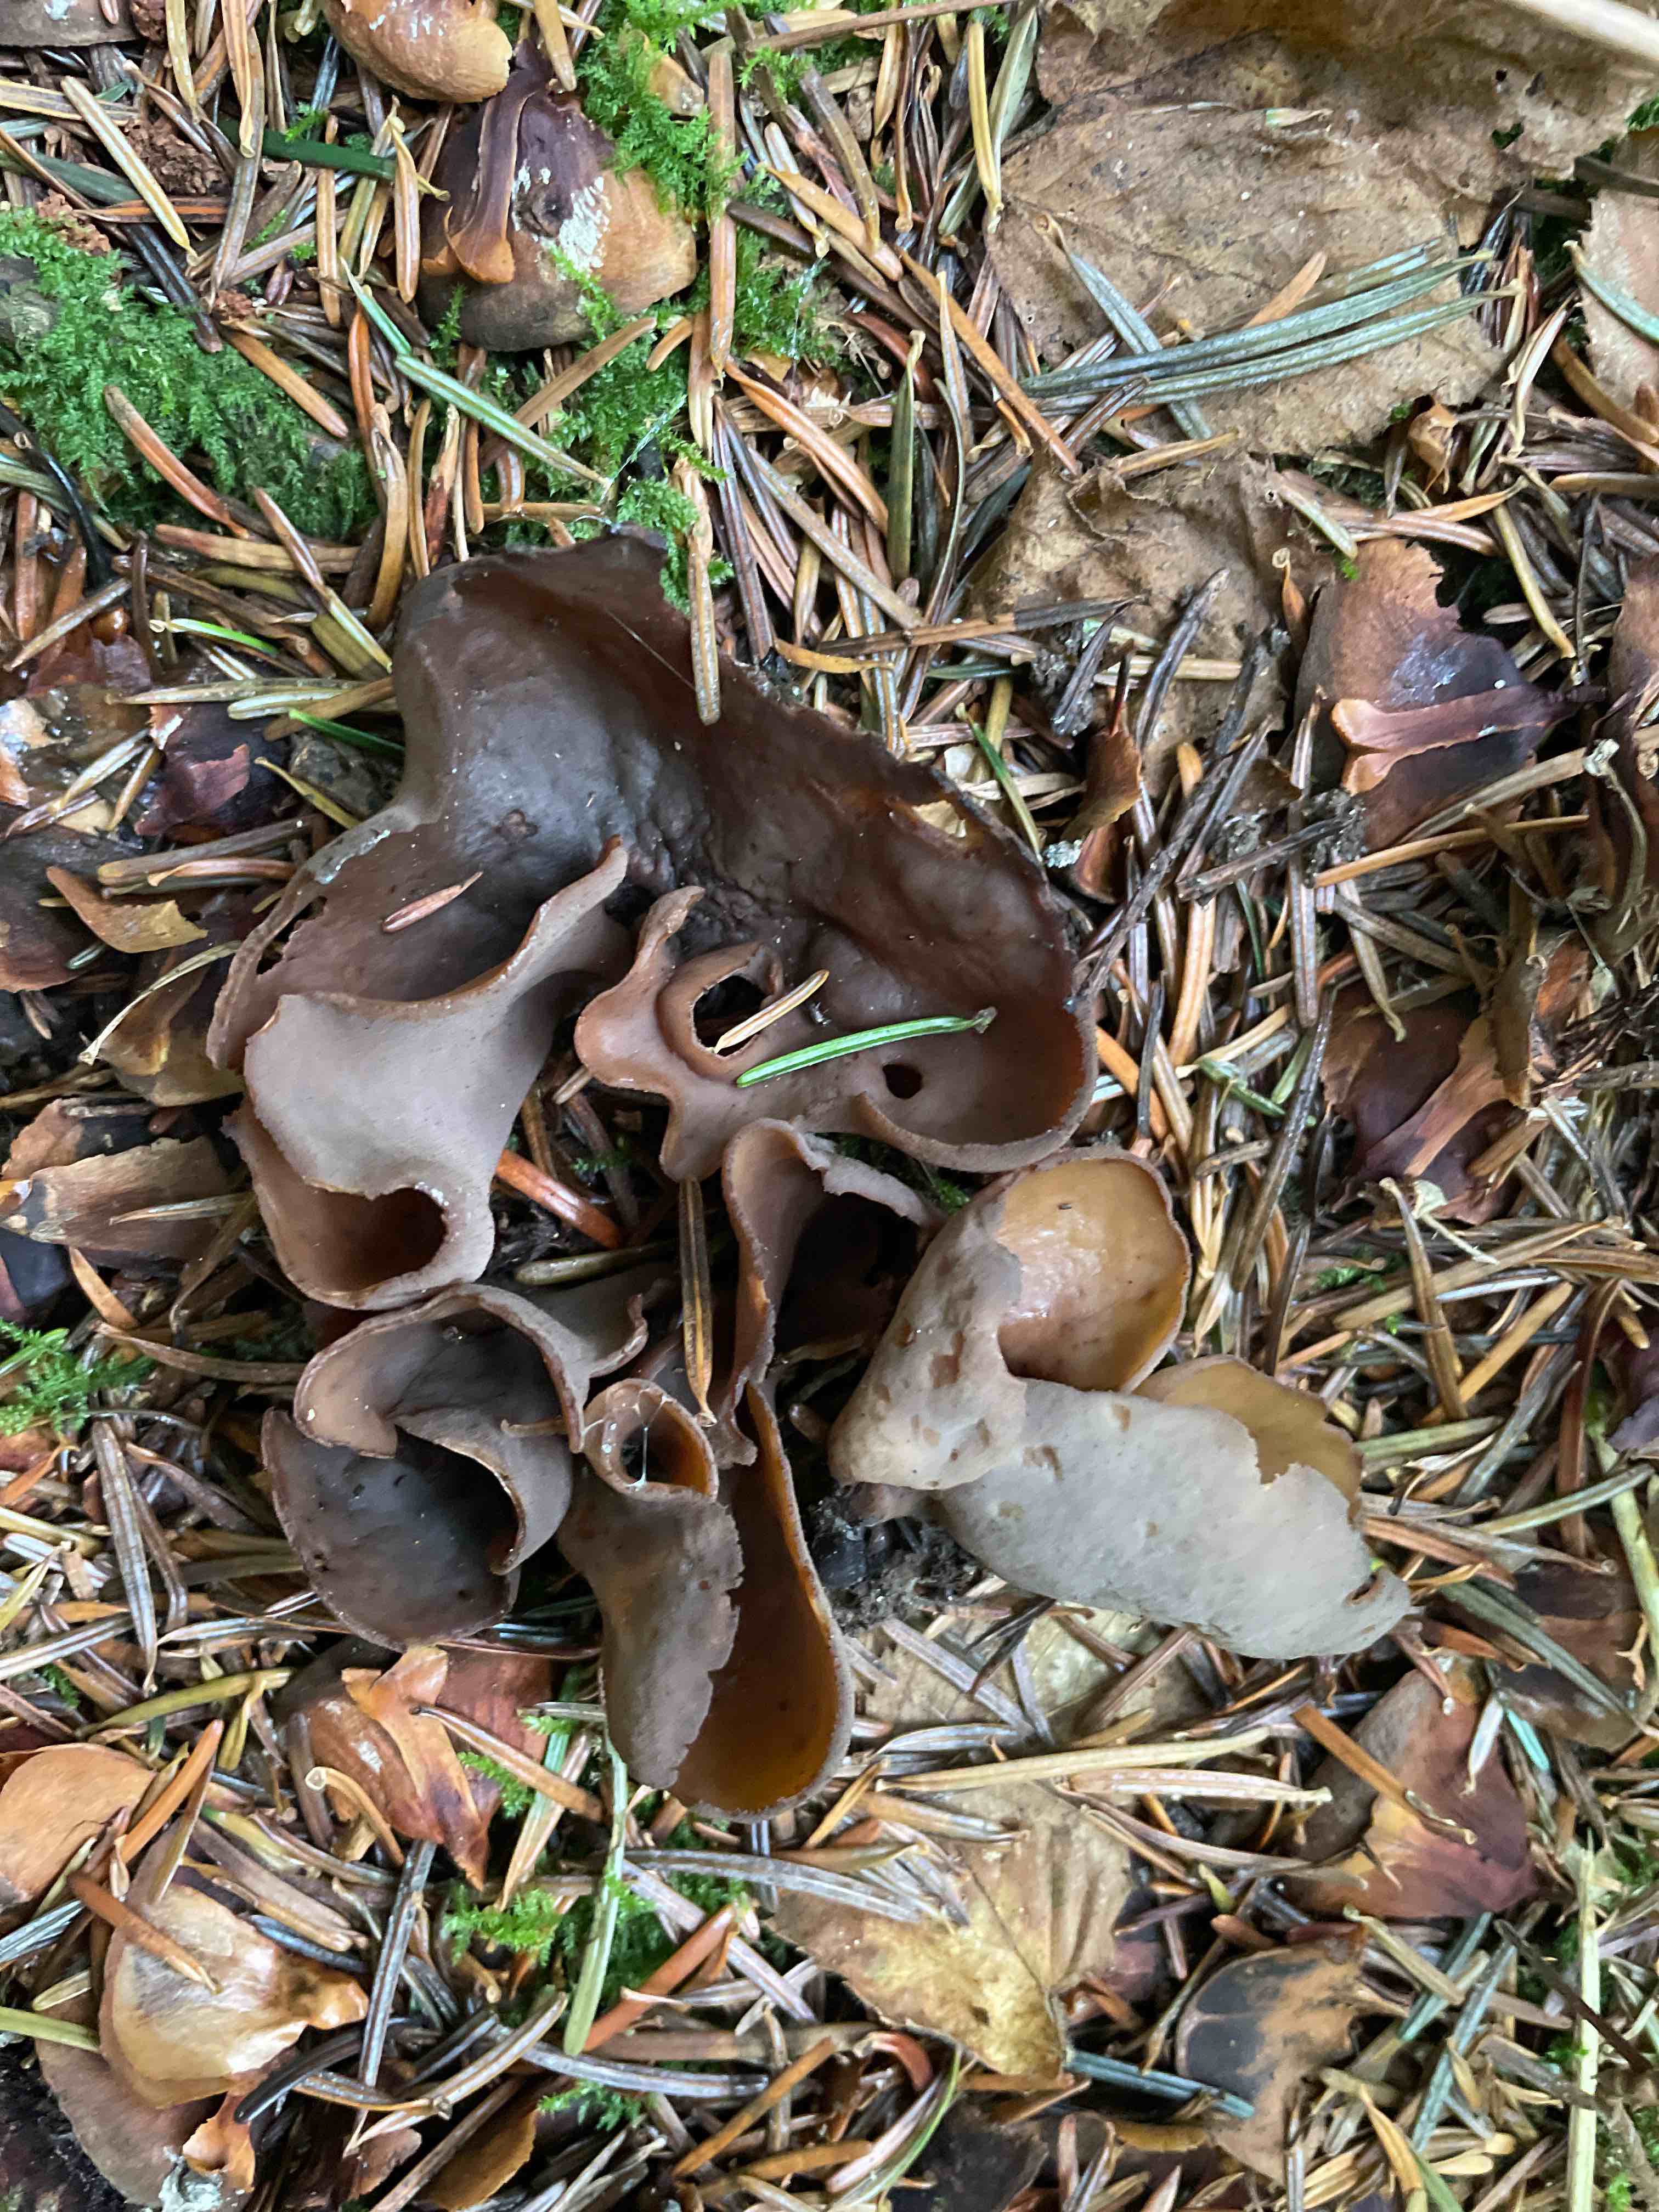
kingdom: Fungi
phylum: Ascomycota
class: Pezizomycetes
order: Pezizales
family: Otideaceae
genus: Otidea
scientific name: Otidea bufonia
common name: brun ørebæger
